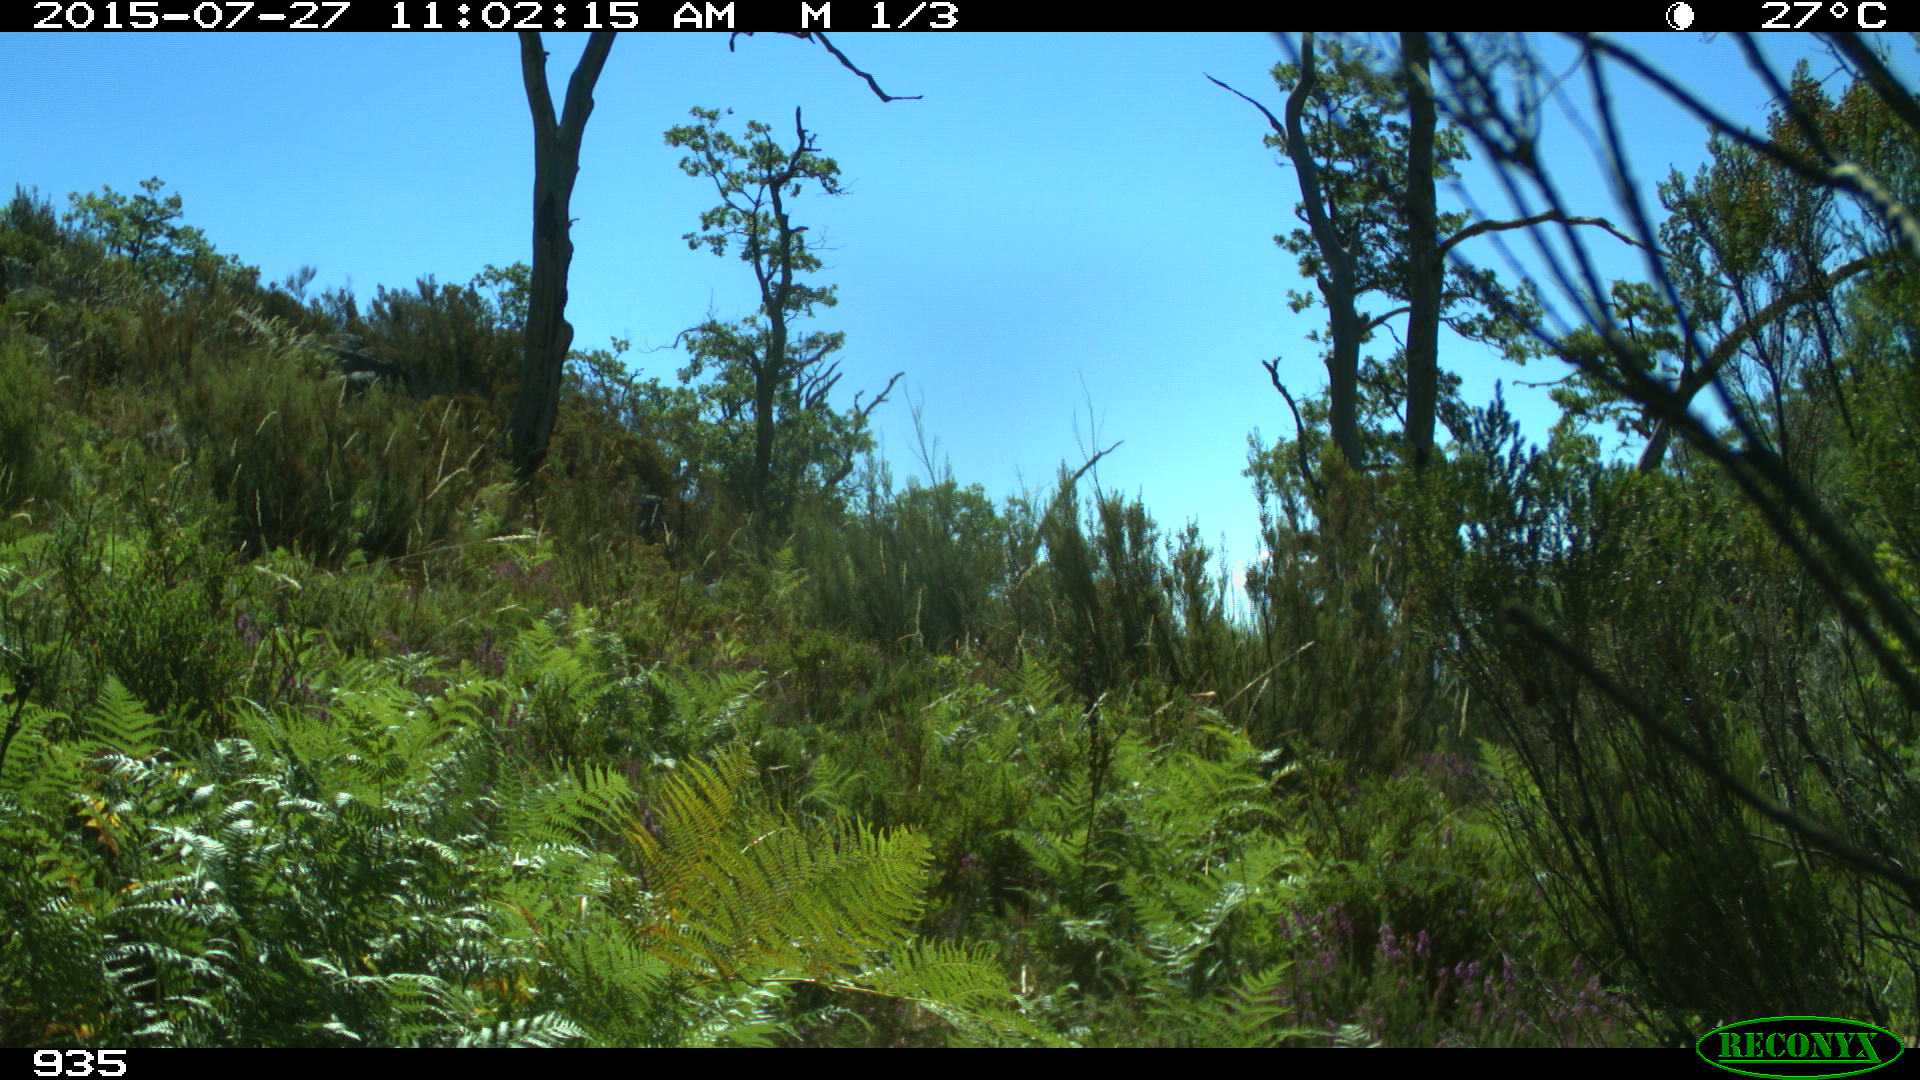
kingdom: Animalia
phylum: Chordata
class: Mammalia
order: Artiodactyla
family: Bovidae
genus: Bos
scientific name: Bos taurus
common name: Domesticated cattle
